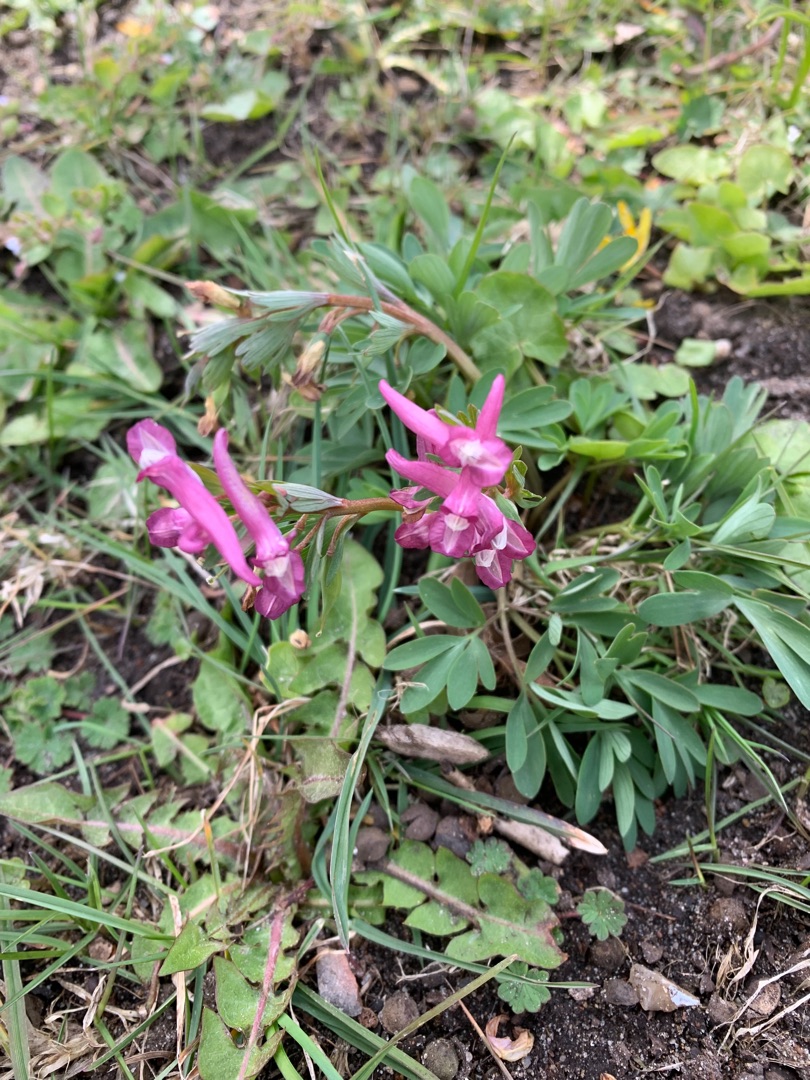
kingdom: Plantae
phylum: Tracheophyta
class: Magnoliopsida
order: Ranunculales
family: Papaveraceae
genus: Corydalis
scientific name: Corydalis solida
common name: Langstilket lærkespore
